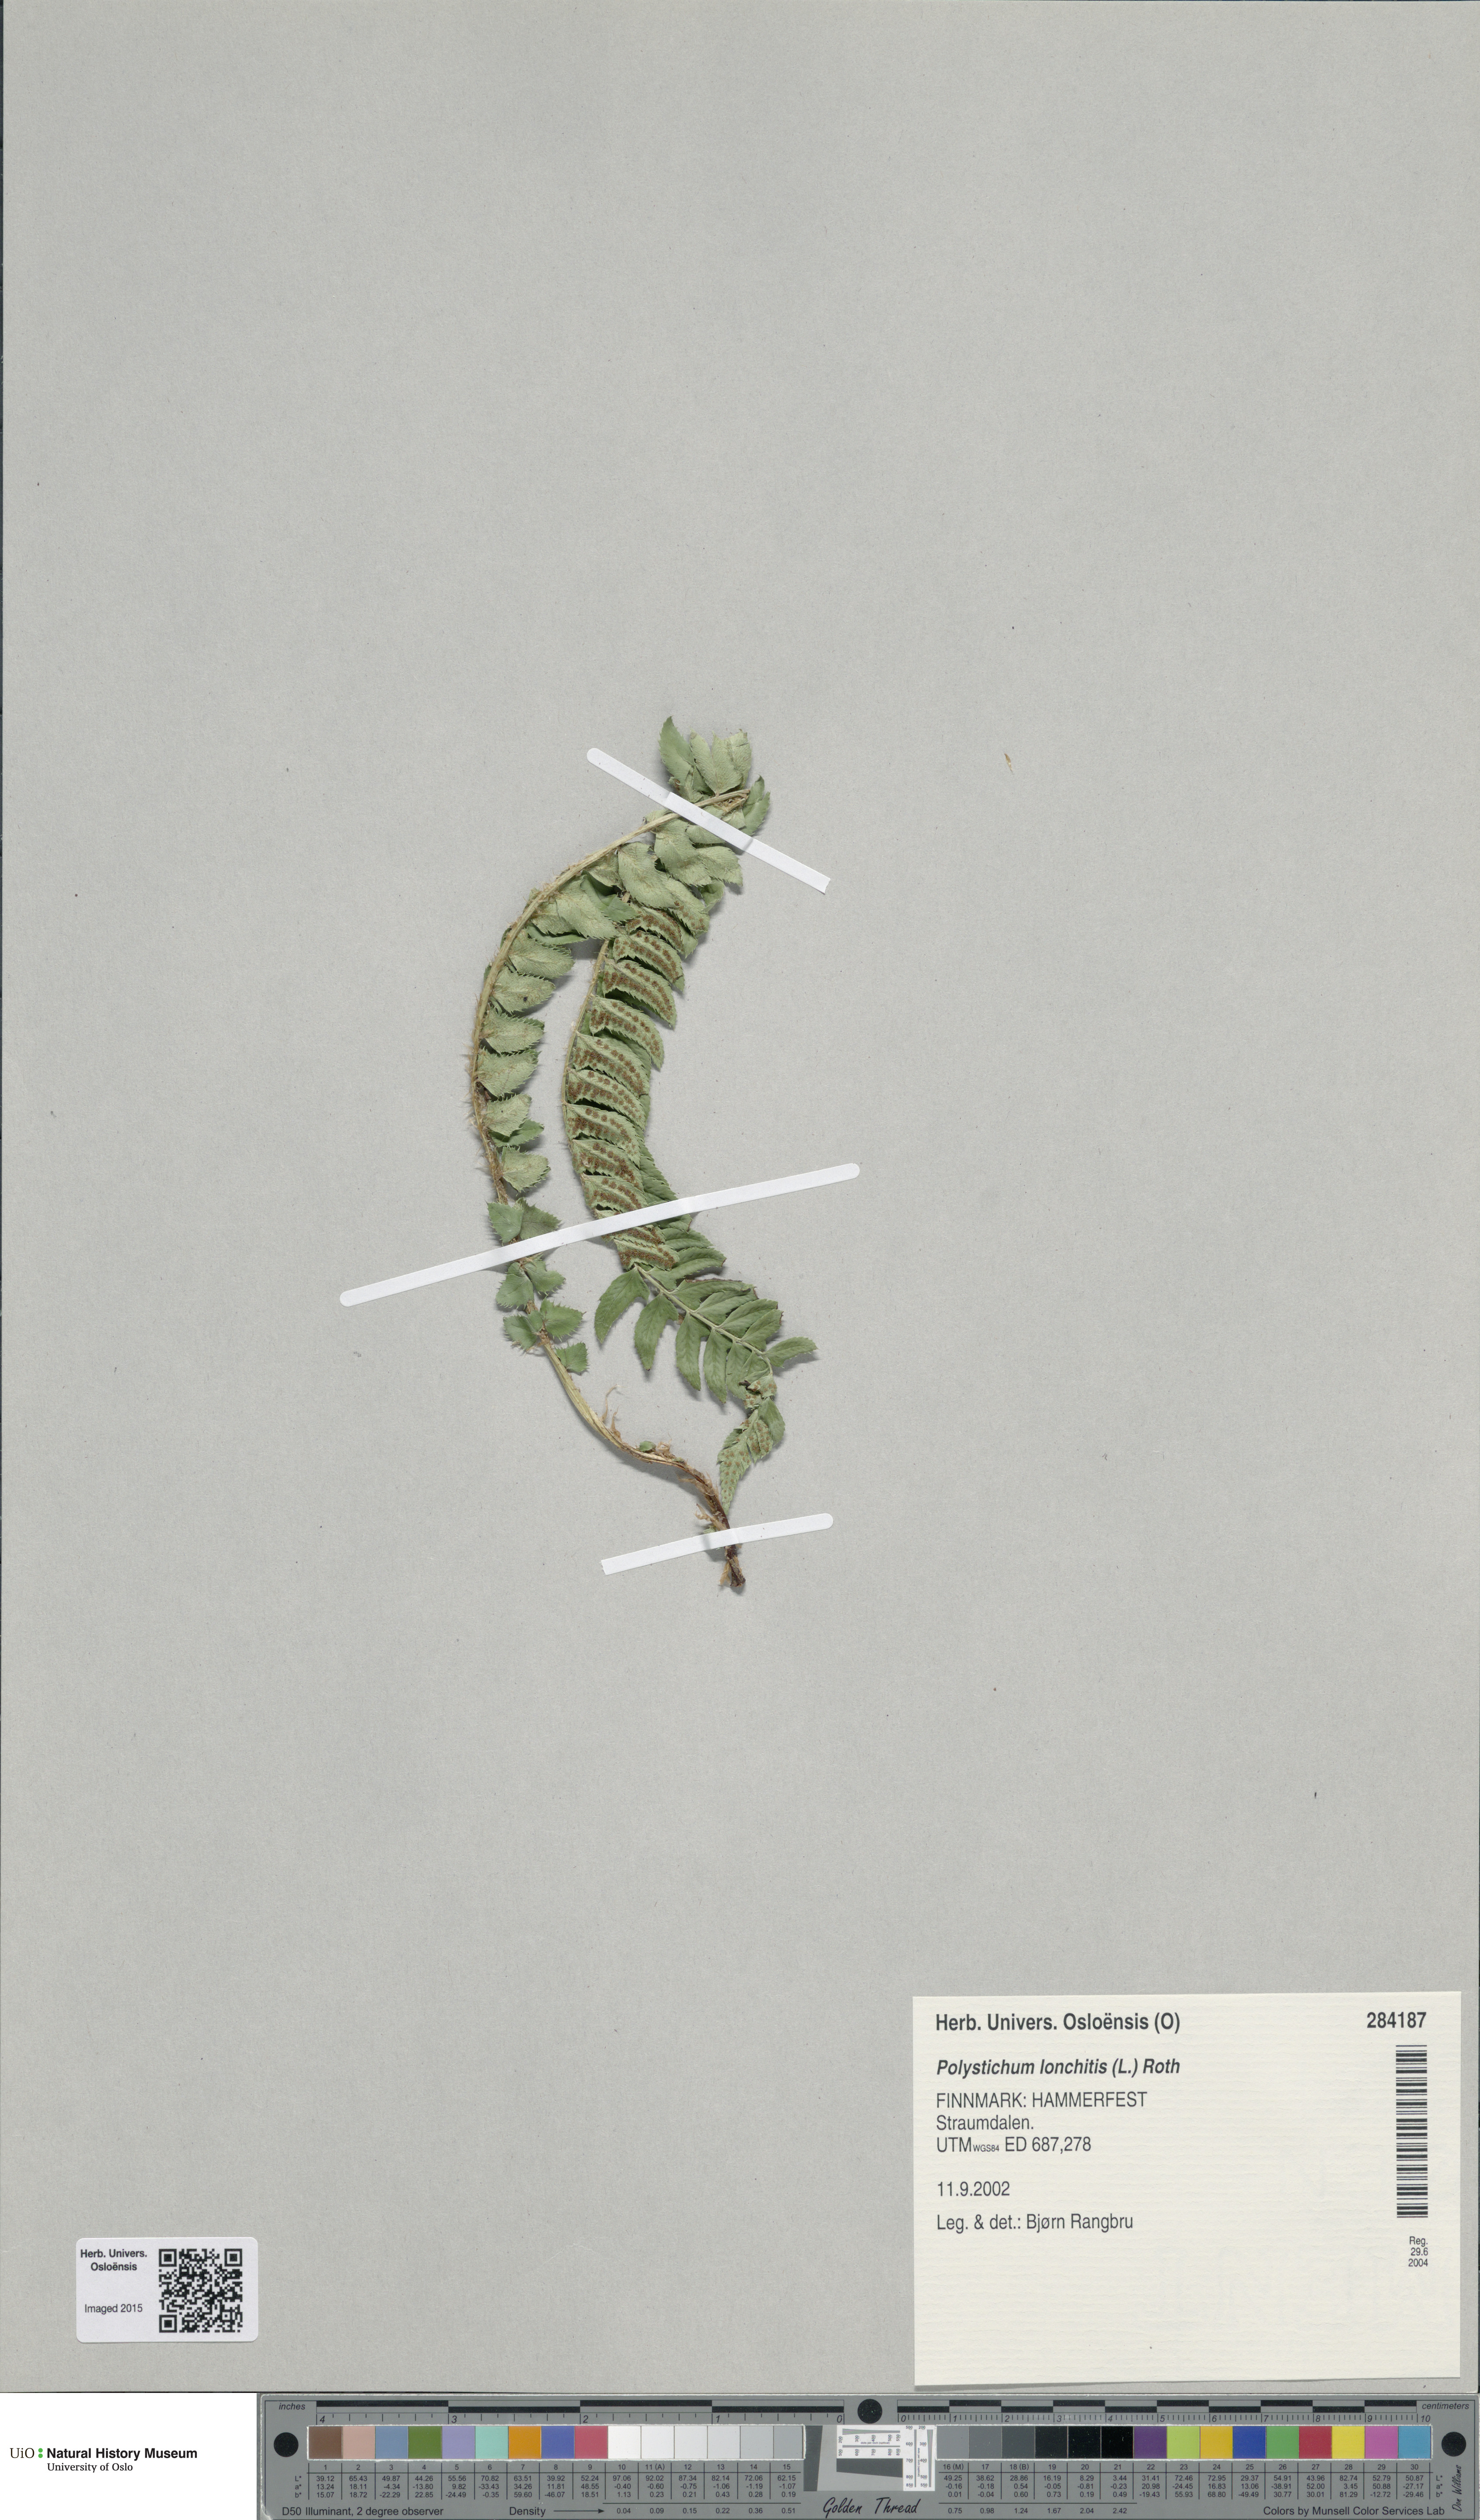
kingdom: Plantae
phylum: Tracheophyta
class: Polypodiopsida
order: Polypodiales
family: Dryopteridaceae
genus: Polystichum
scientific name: Polystichum lonchitis
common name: Holly fern
